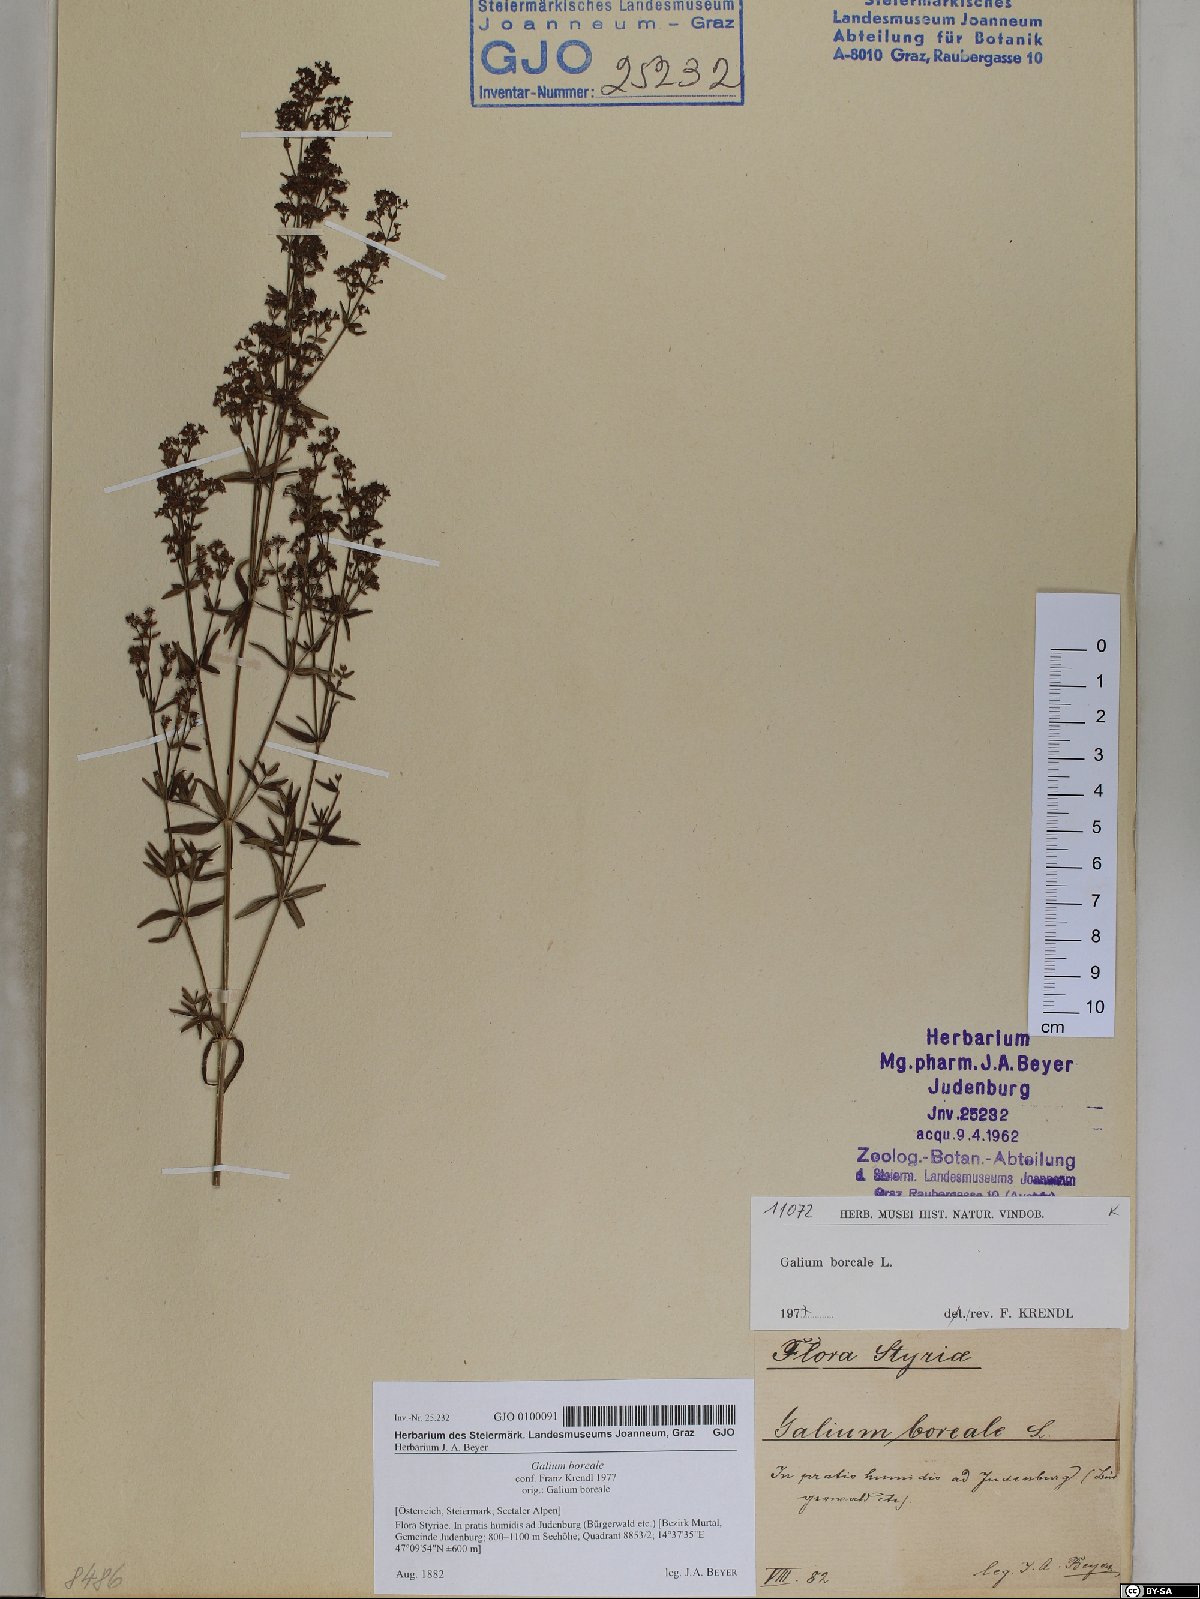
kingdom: Plantae
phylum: Tracheophyta
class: Magnoliopsida
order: Gentianales
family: Rubiaceae
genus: Galium
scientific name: Galium boreale
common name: Northern bedstraw
